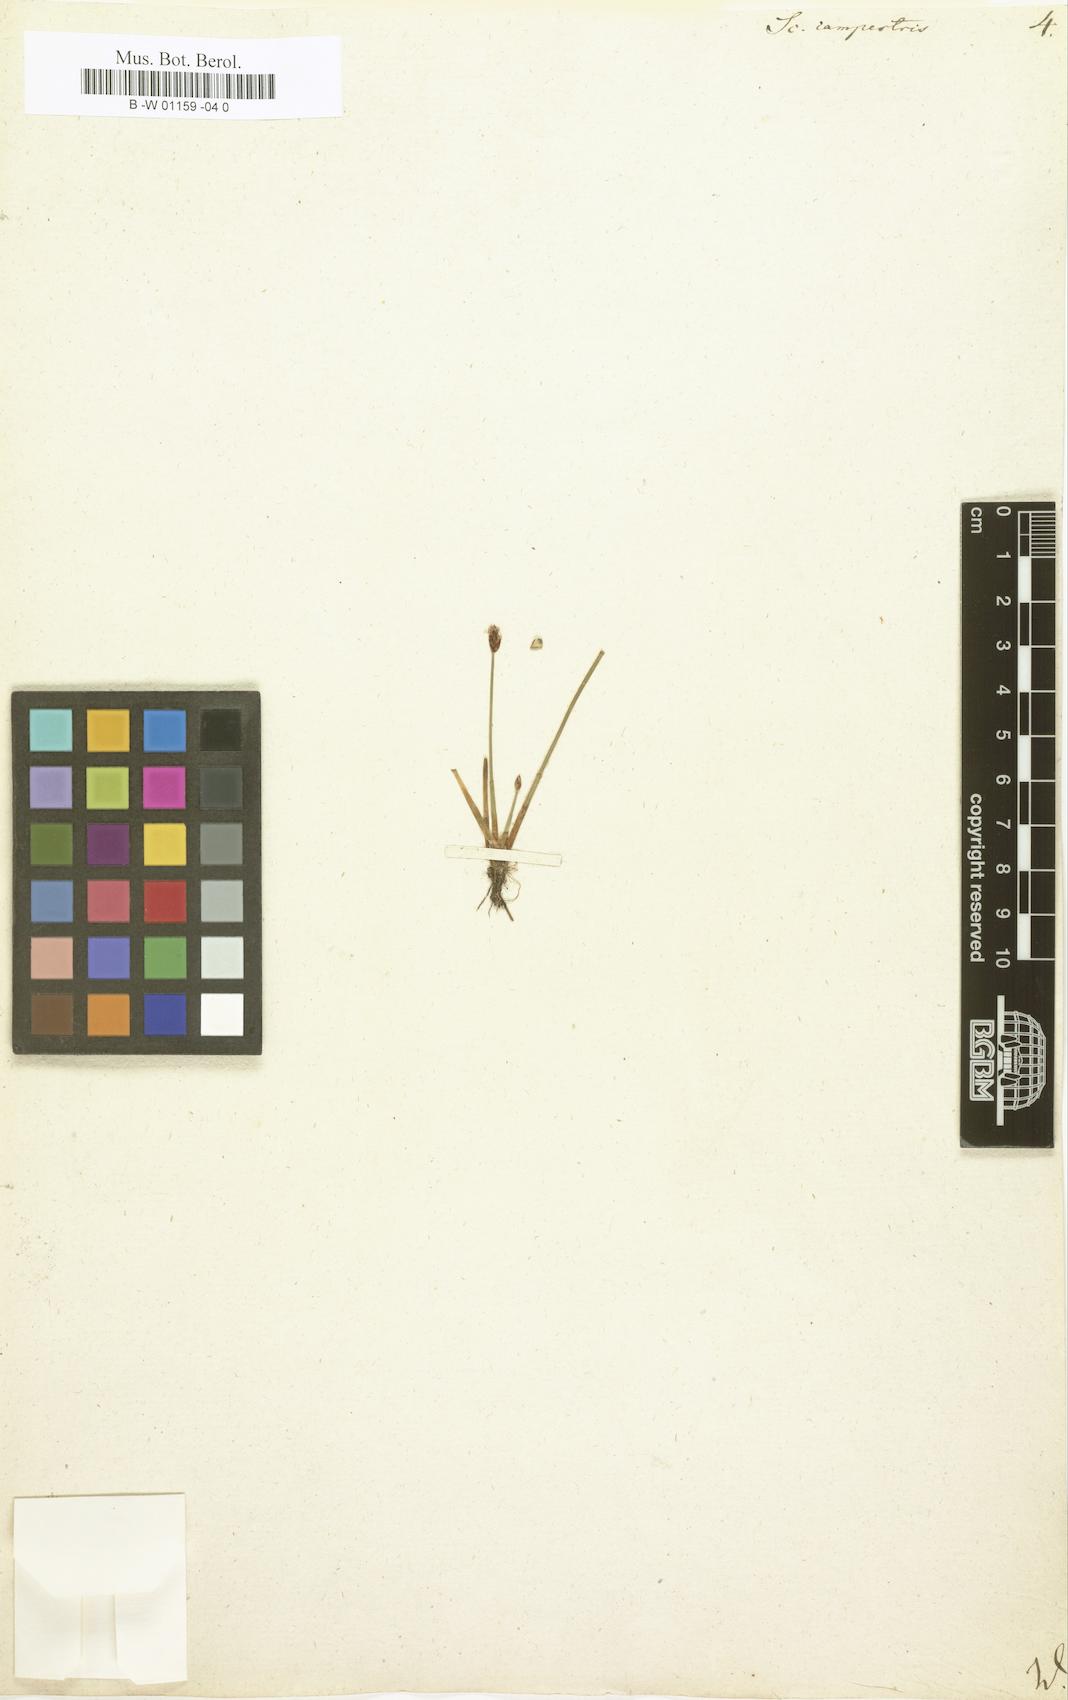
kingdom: Plantae
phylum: Tracheophyta
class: Liliopsida
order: Poales
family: Cyperaceae
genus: Eleocharis
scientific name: Eleocharis quinqueflora
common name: Few-flowered spike-rush
